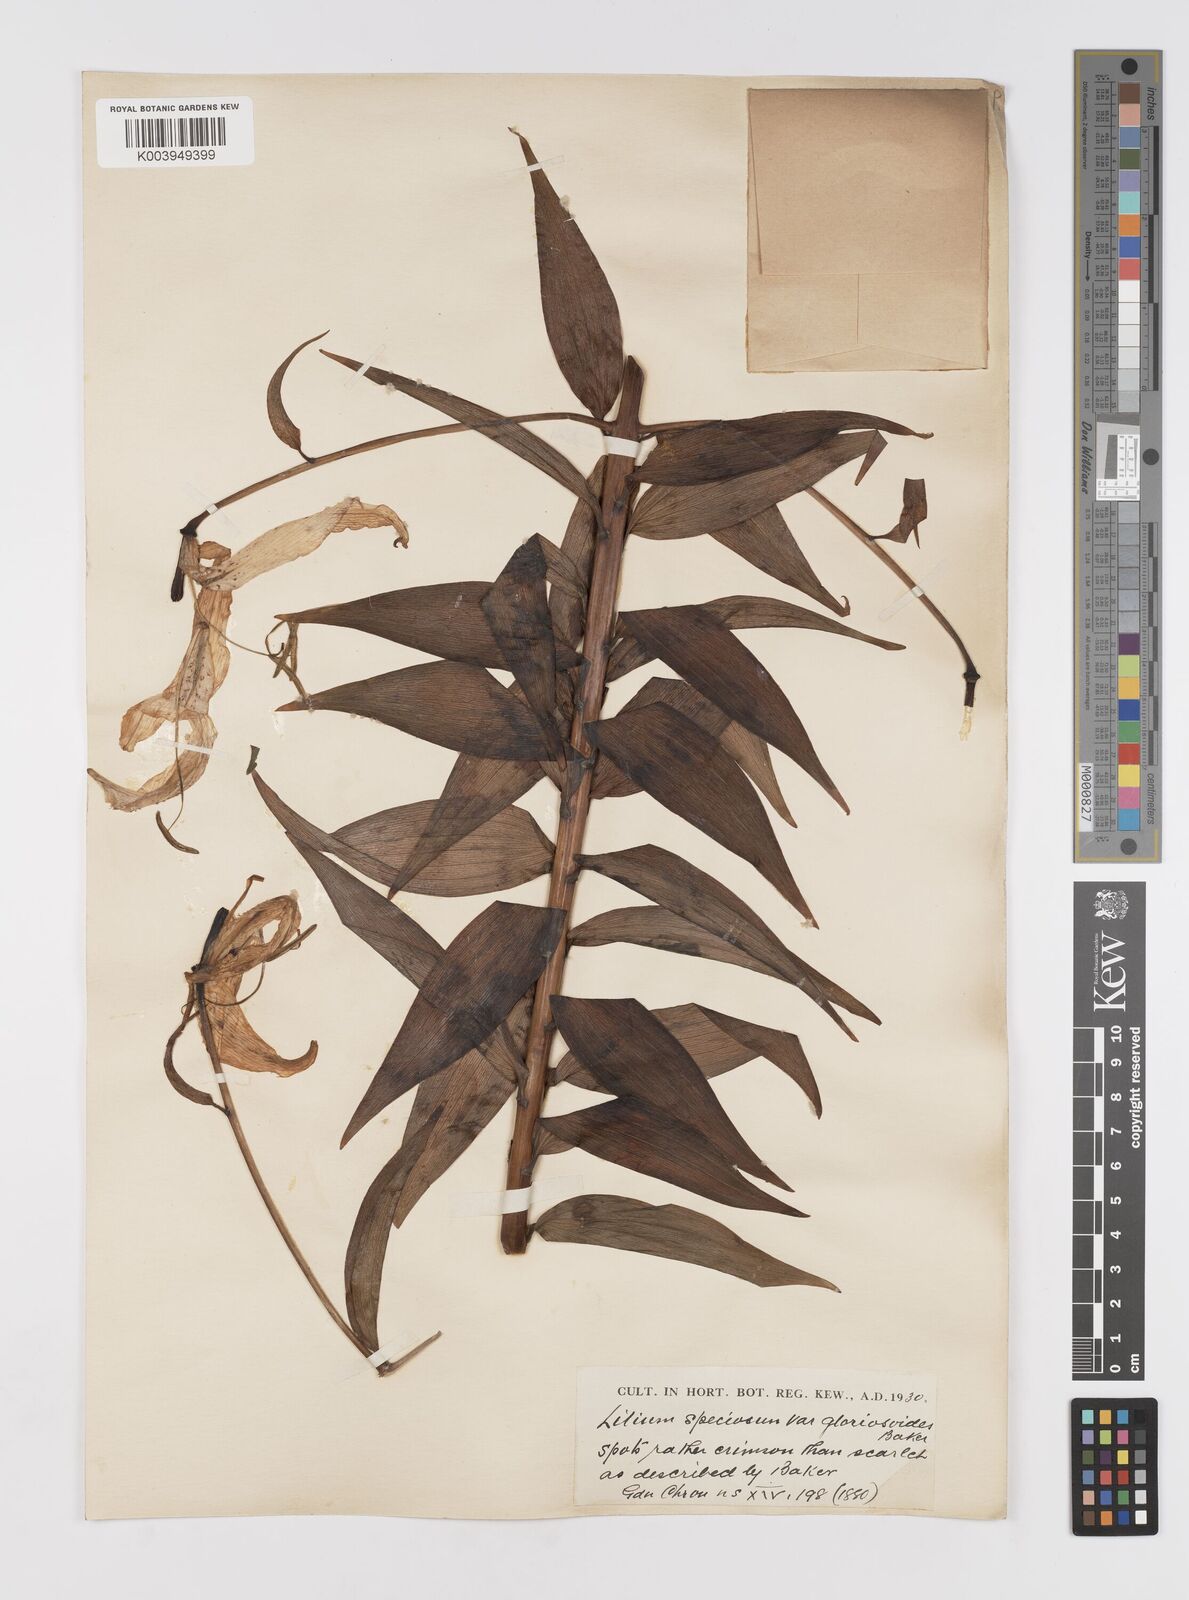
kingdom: Plantae
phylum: Tracheophyta
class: Liliopsida
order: Liliales
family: Liliaceae
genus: Lilium
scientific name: Lilium speciosum
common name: Japanese lily
